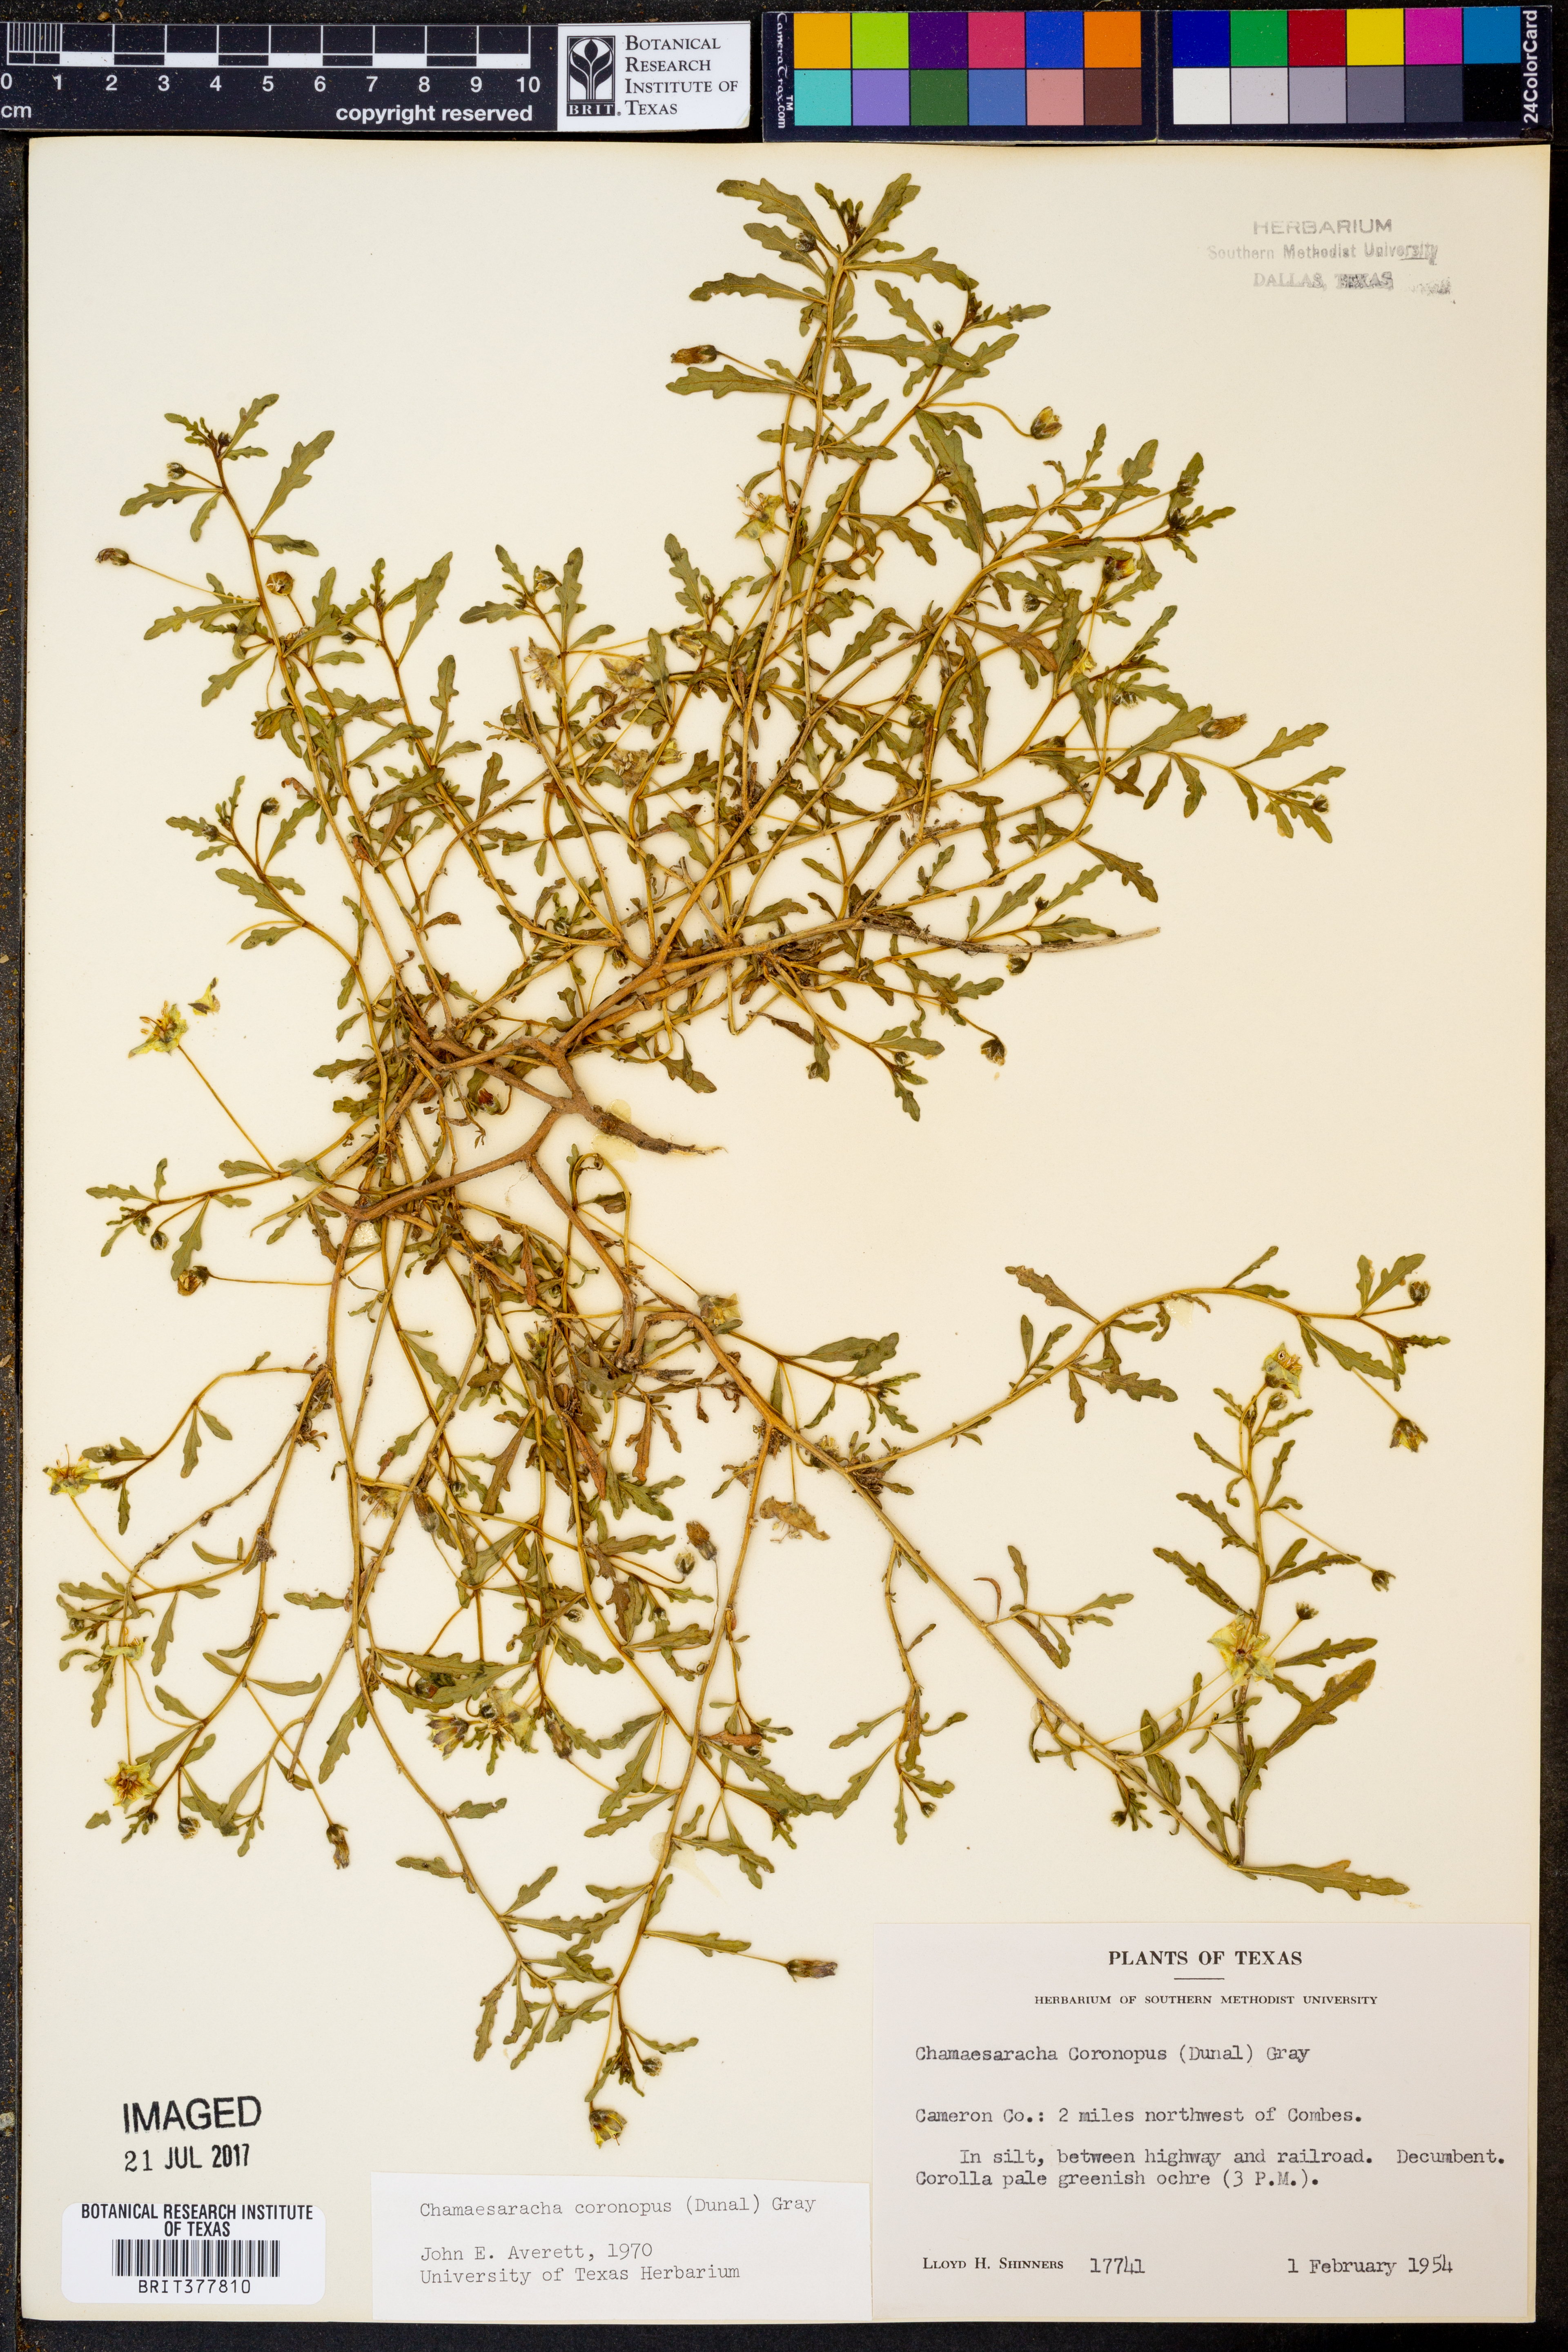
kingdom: Plantae
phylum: Tracheophyta
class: Magnoliopsida
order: Solanales
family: Solanaceae
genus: Chamaesaracha
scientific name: Chamaesaracha coronopus
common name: Smooth chamaesaracha
